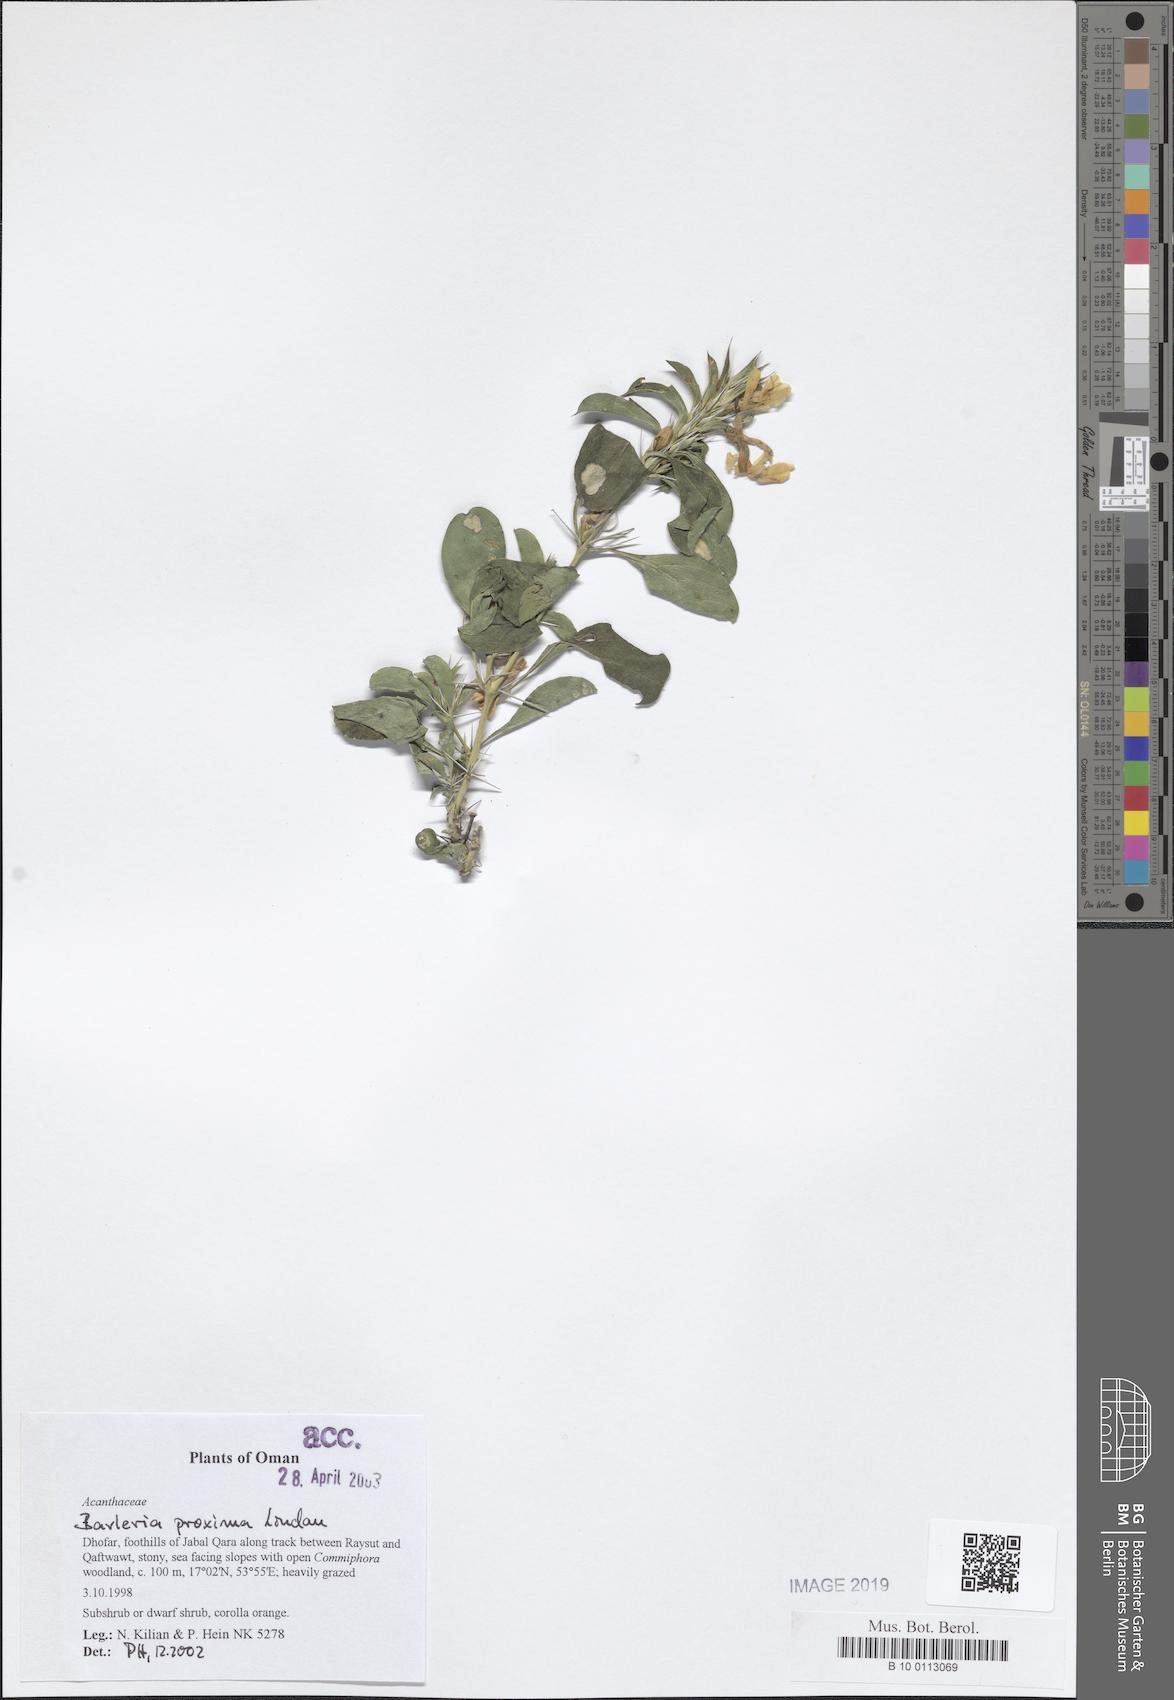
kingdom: Plantae
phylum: Tracheophyta
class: Magnoliopsida
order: Lamiales
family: Acanthaceae
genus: Barleria
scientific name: Barleria proxima
